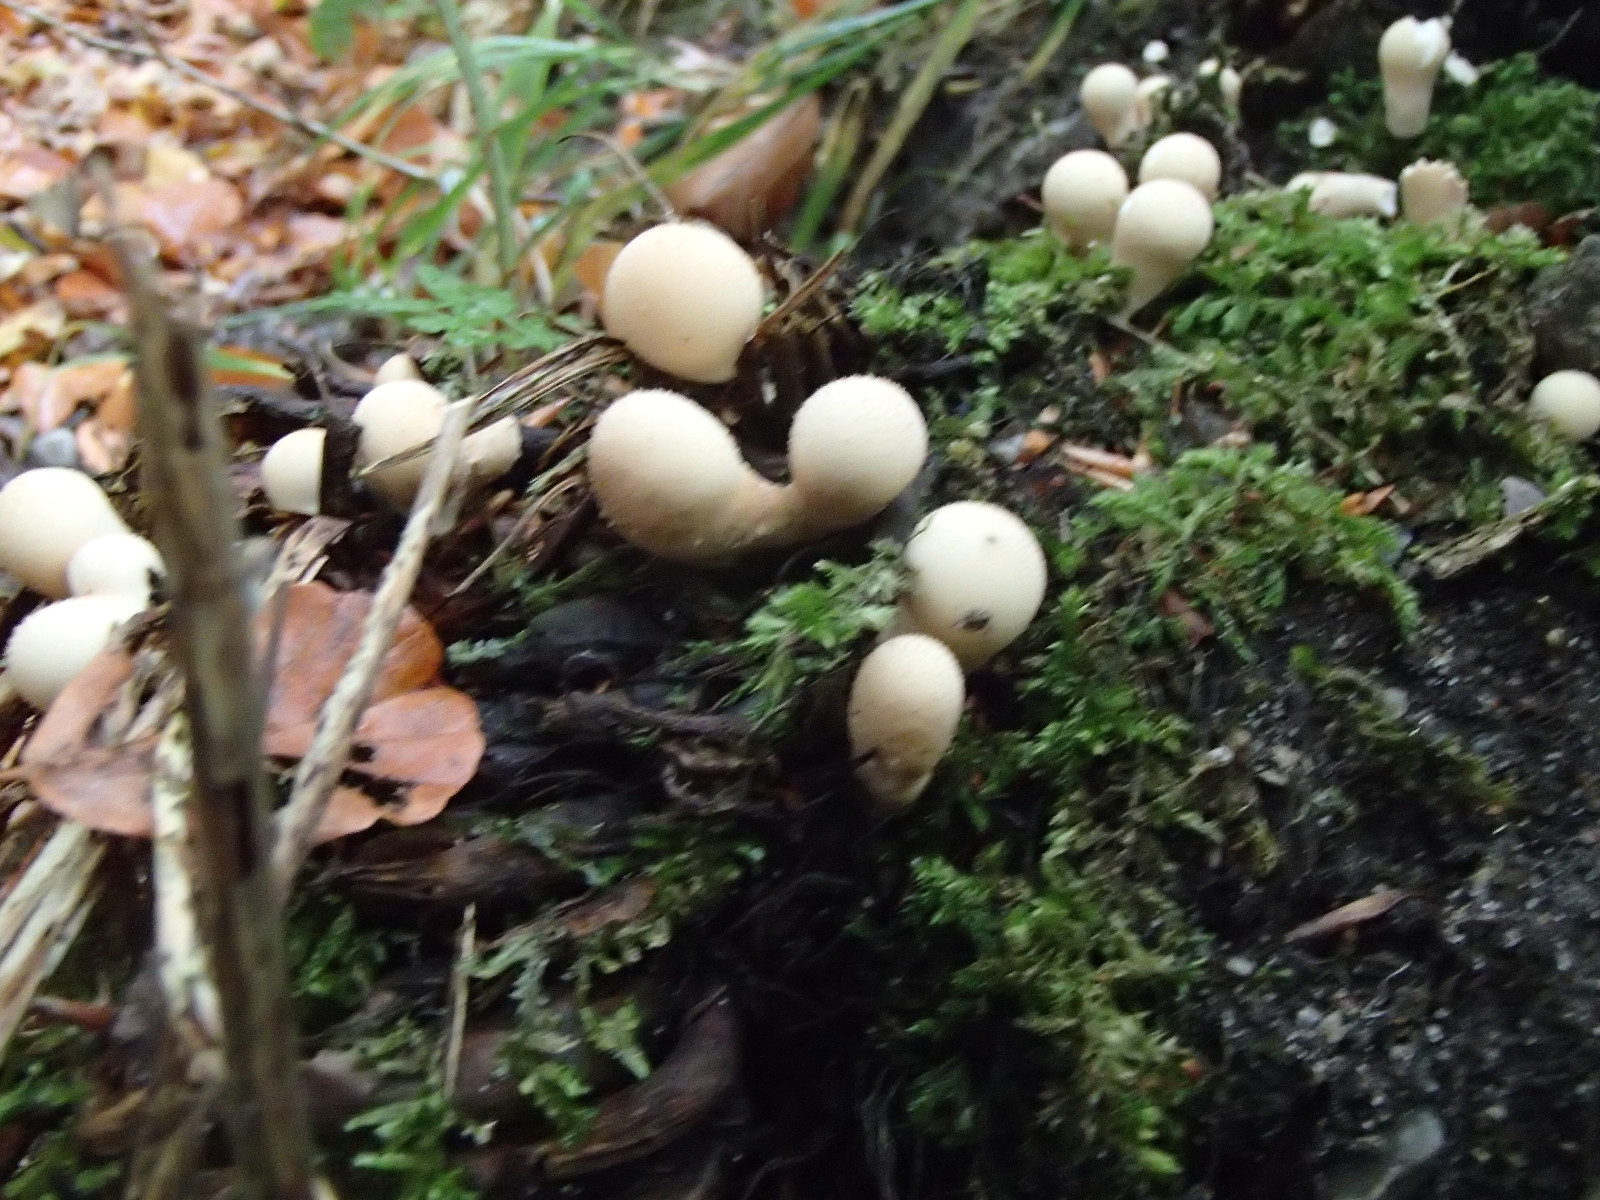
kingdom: Fungi
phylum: Basidiomycota
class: Agaricomycetes
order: Agaricales
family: Lycoperdaceae
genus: Apioperdon
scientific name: Apioperdon pyriforme
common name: pære-støvbold
